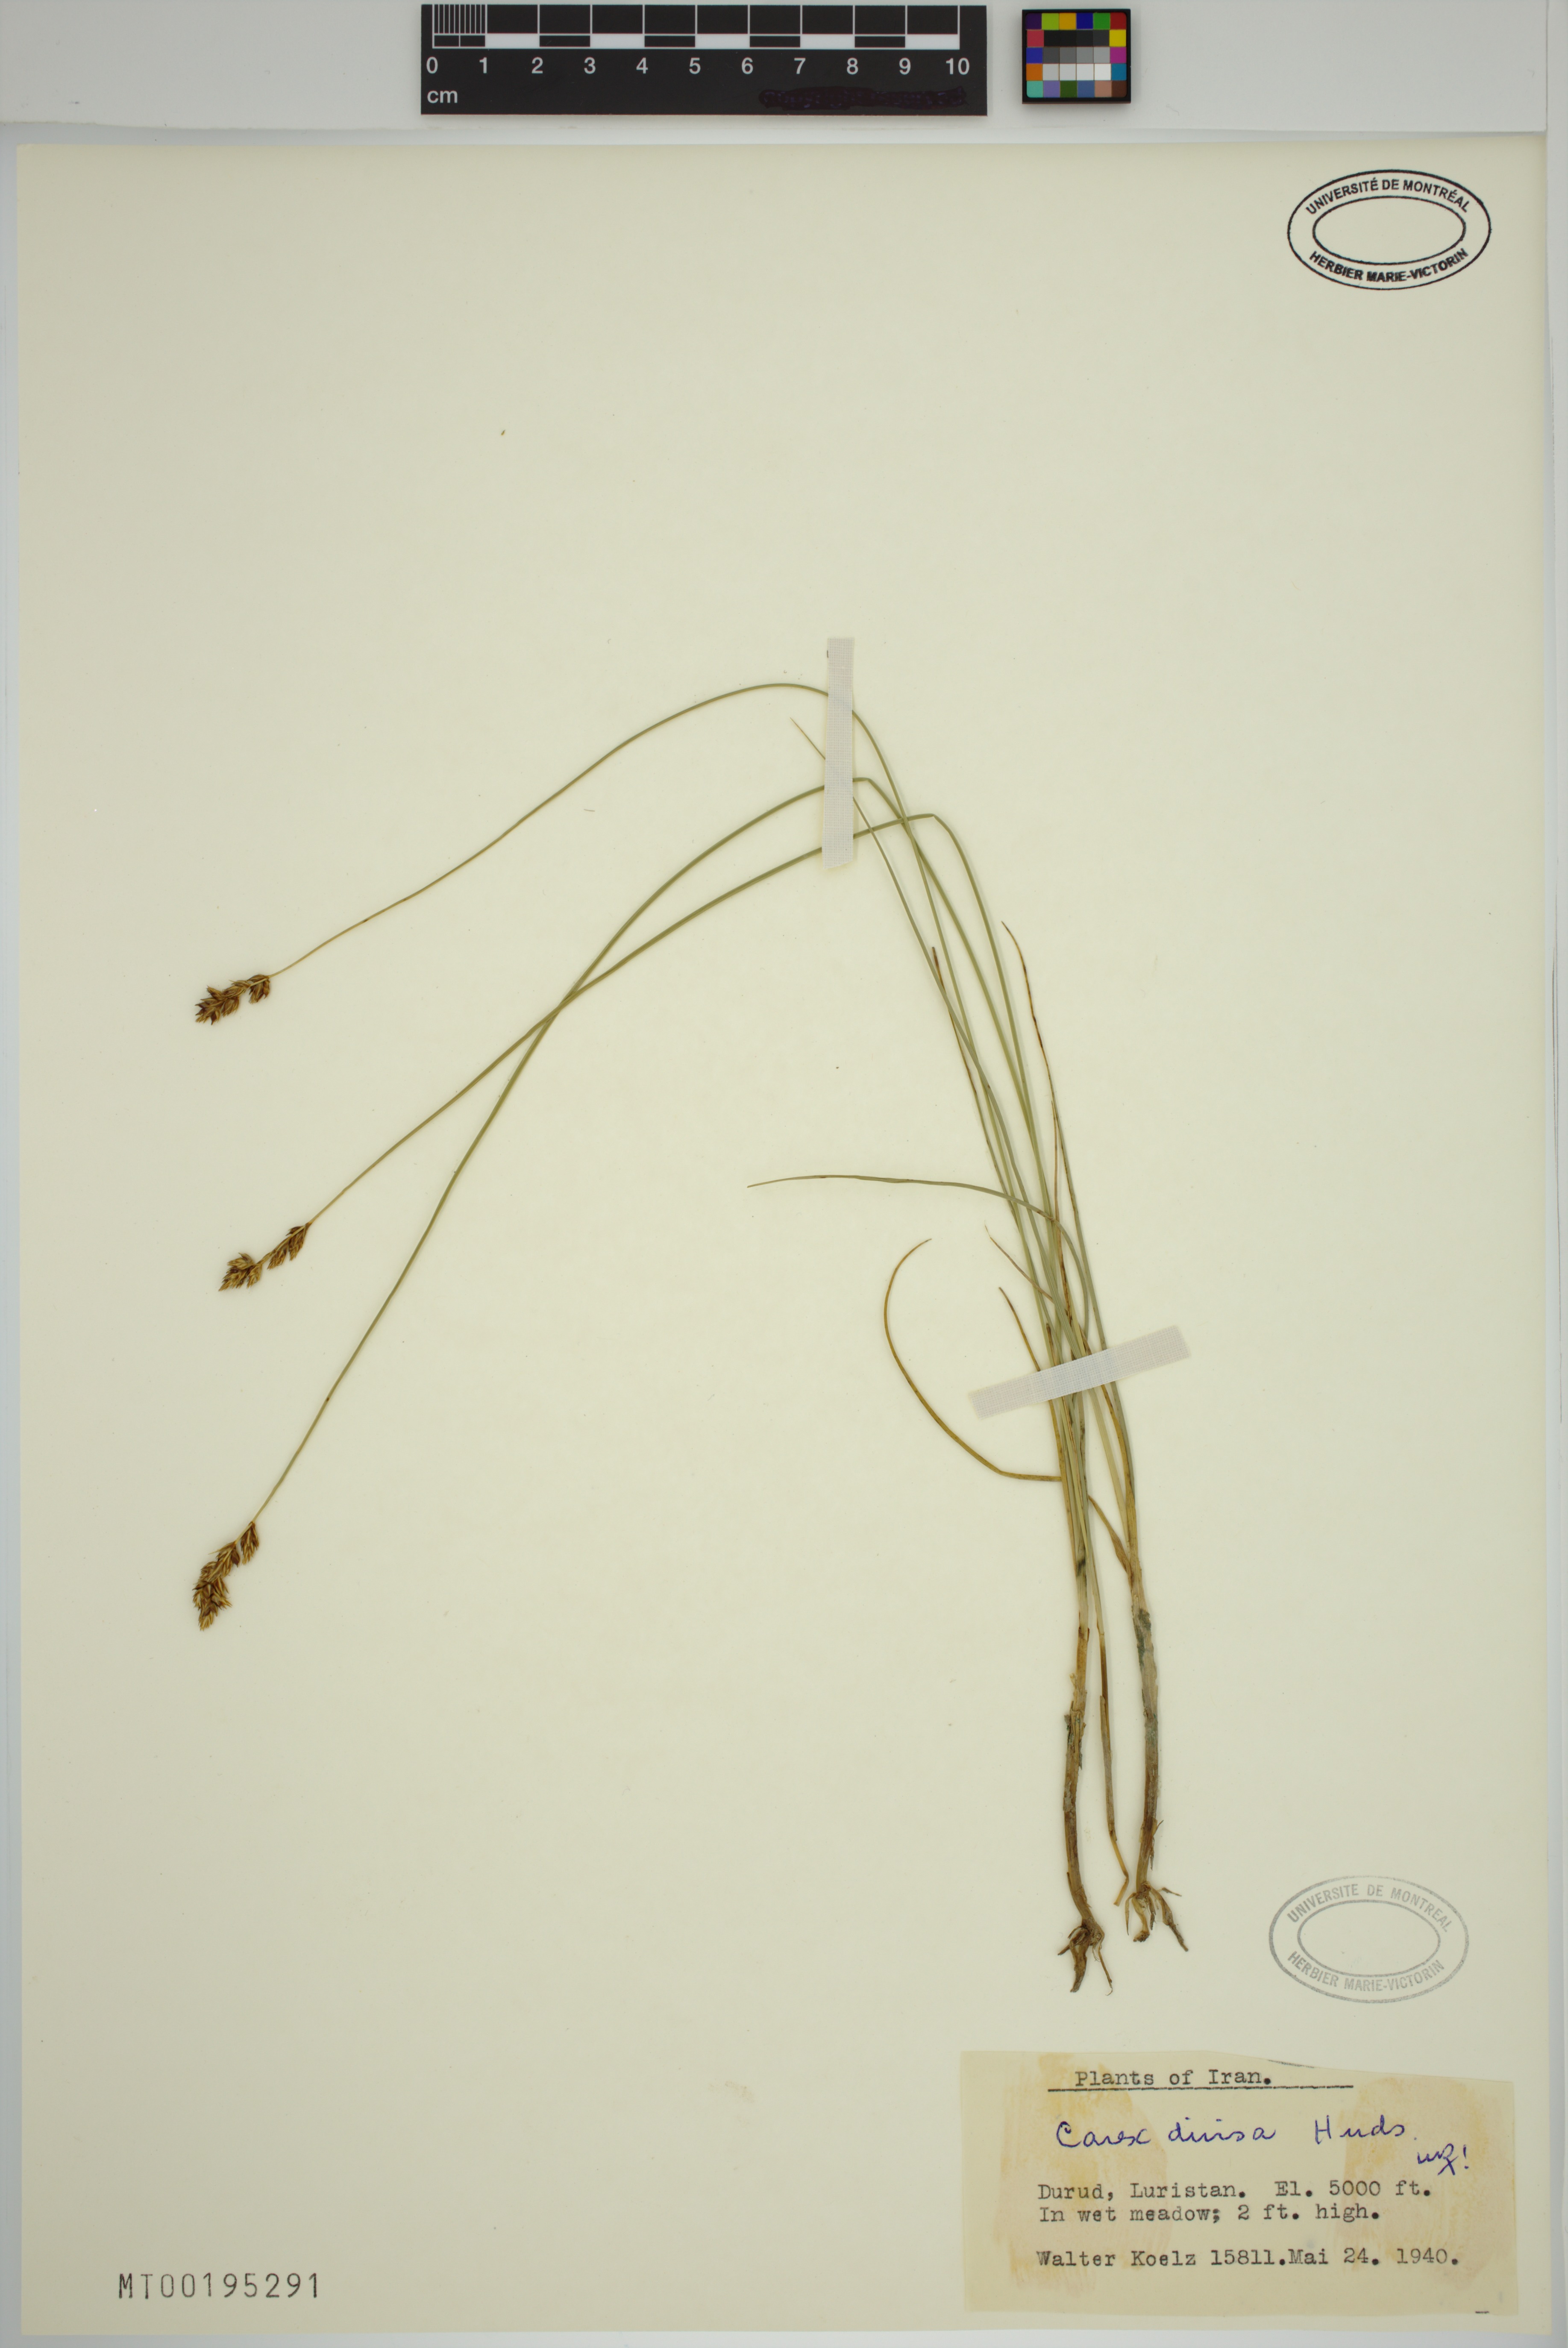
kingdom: Plantae
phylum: Tracheophyta
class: Liliopsida
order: Poales
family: Cyperaceae
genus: Carex
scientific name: Carex divisa
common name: Divided sedge
